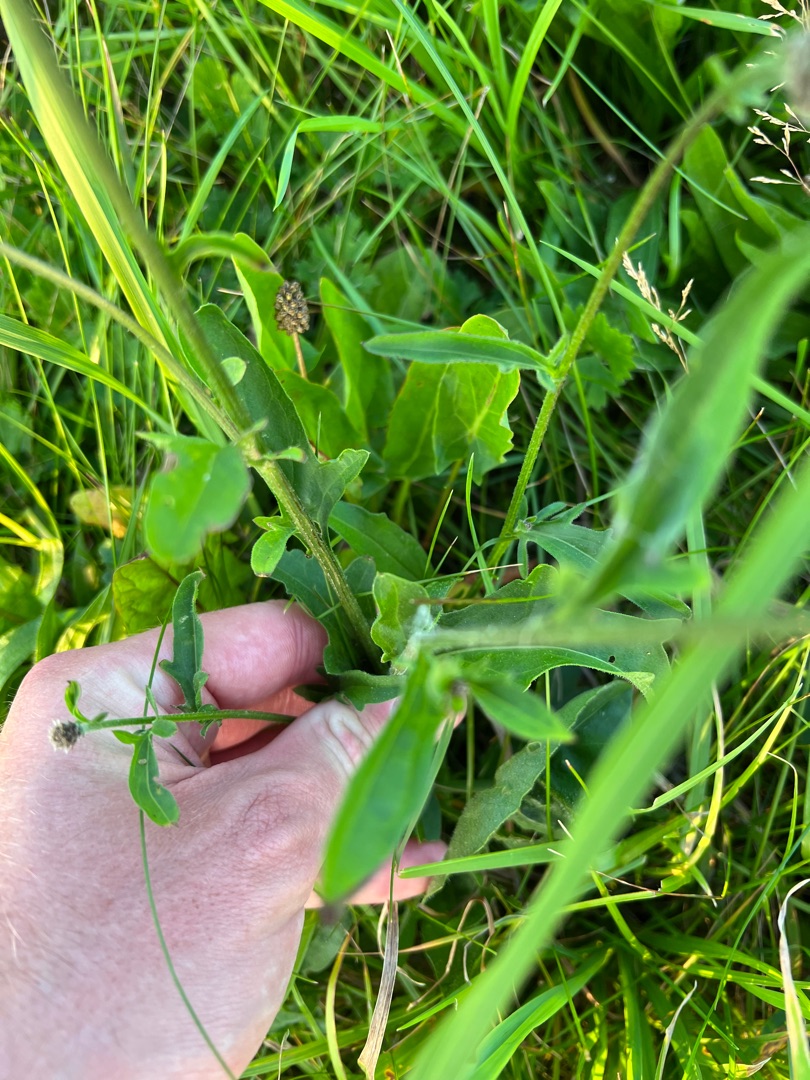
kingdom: Plantae
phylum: Tracheophyta
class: Magnoliopsida
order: Asterales
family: Asteraceae
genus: Centaurea
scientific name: Centaurea scabiosa
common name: Stor knopurt
